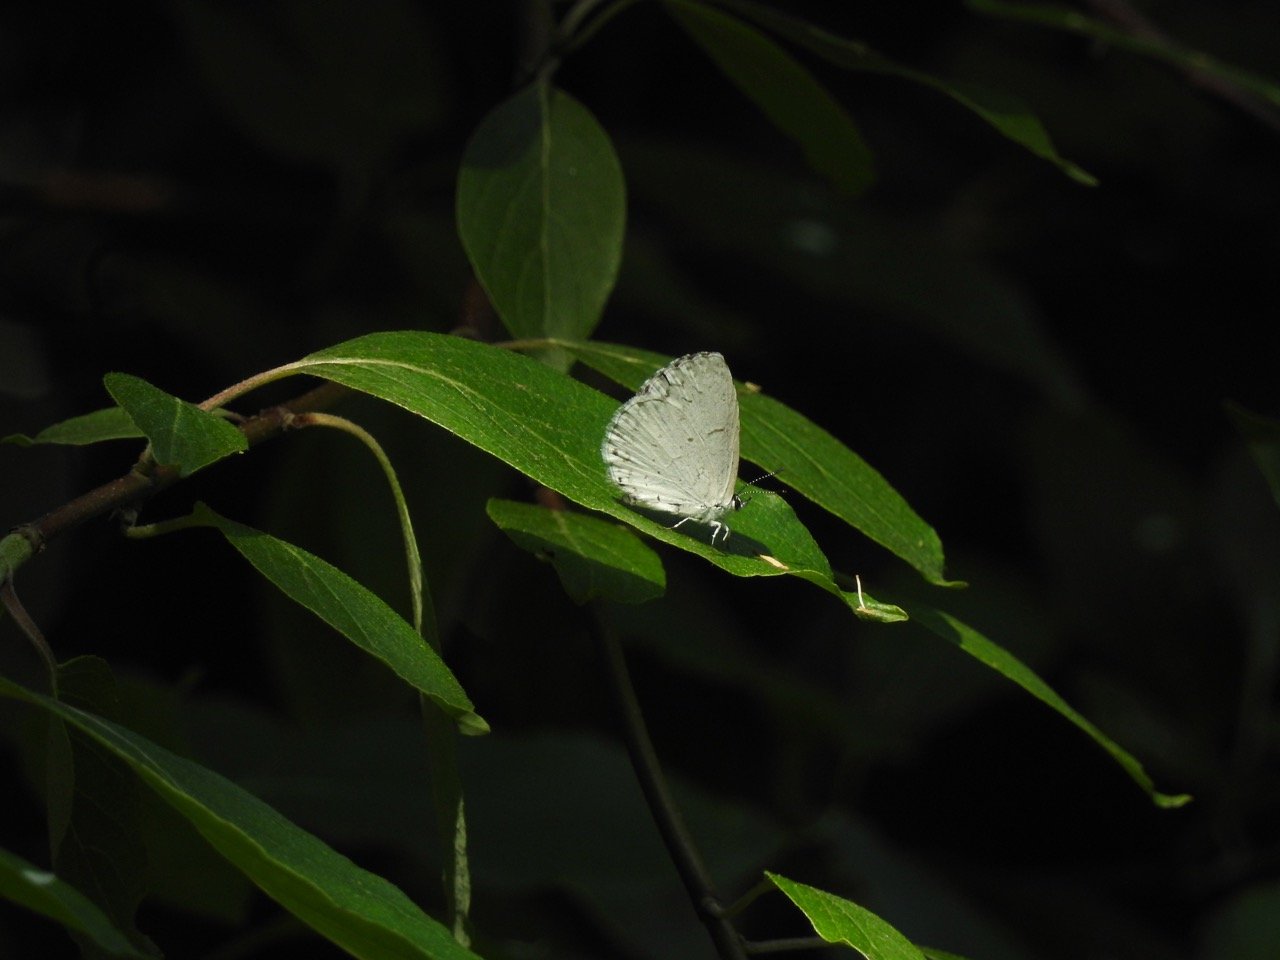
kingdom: Animalia
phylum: Arthropoda
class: Insecta
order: Lepidoptera
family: Lycaenidae
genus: Cyaniris
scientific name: Cyaniris neglecta
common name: Summer Azure
